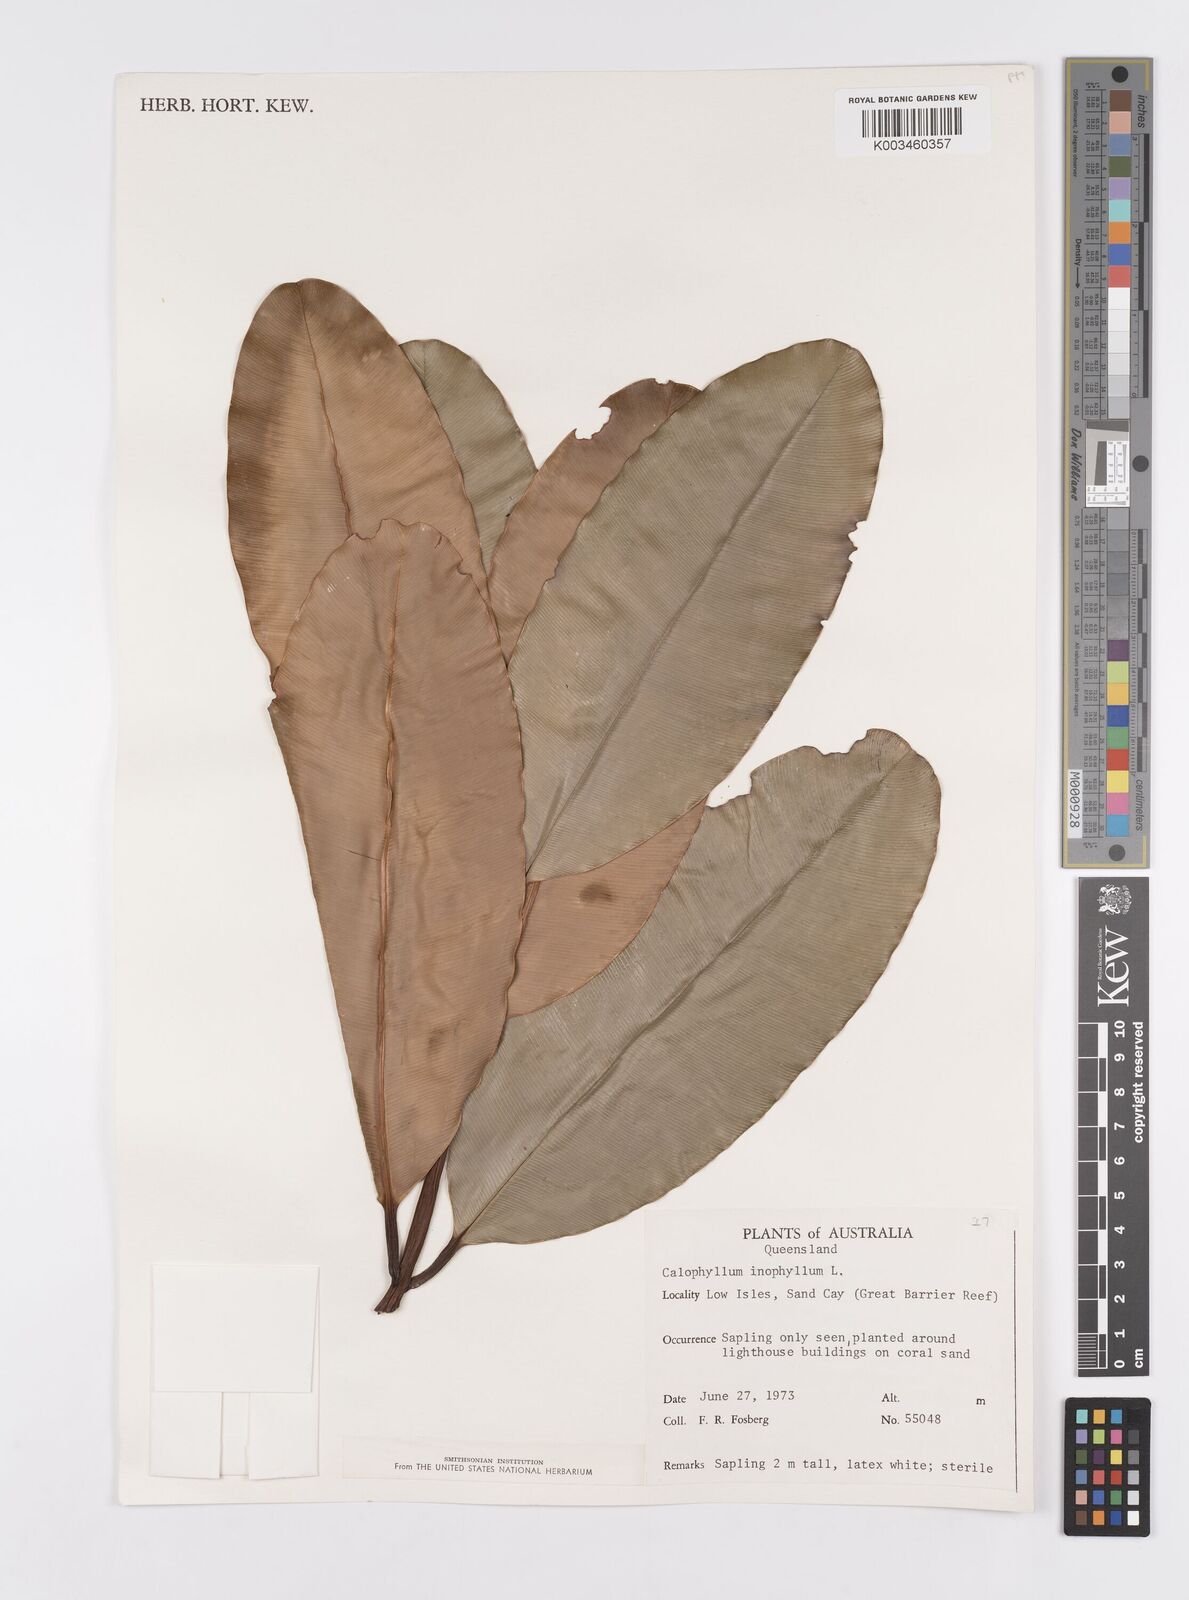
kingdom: Plantae
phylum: Tracheophyta
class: Magnoliopsida
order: Malpighiales
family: Calophyllaceae
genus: Calophyllum
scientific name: Calophyllum inophyllum
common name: Alexandrian laurel
